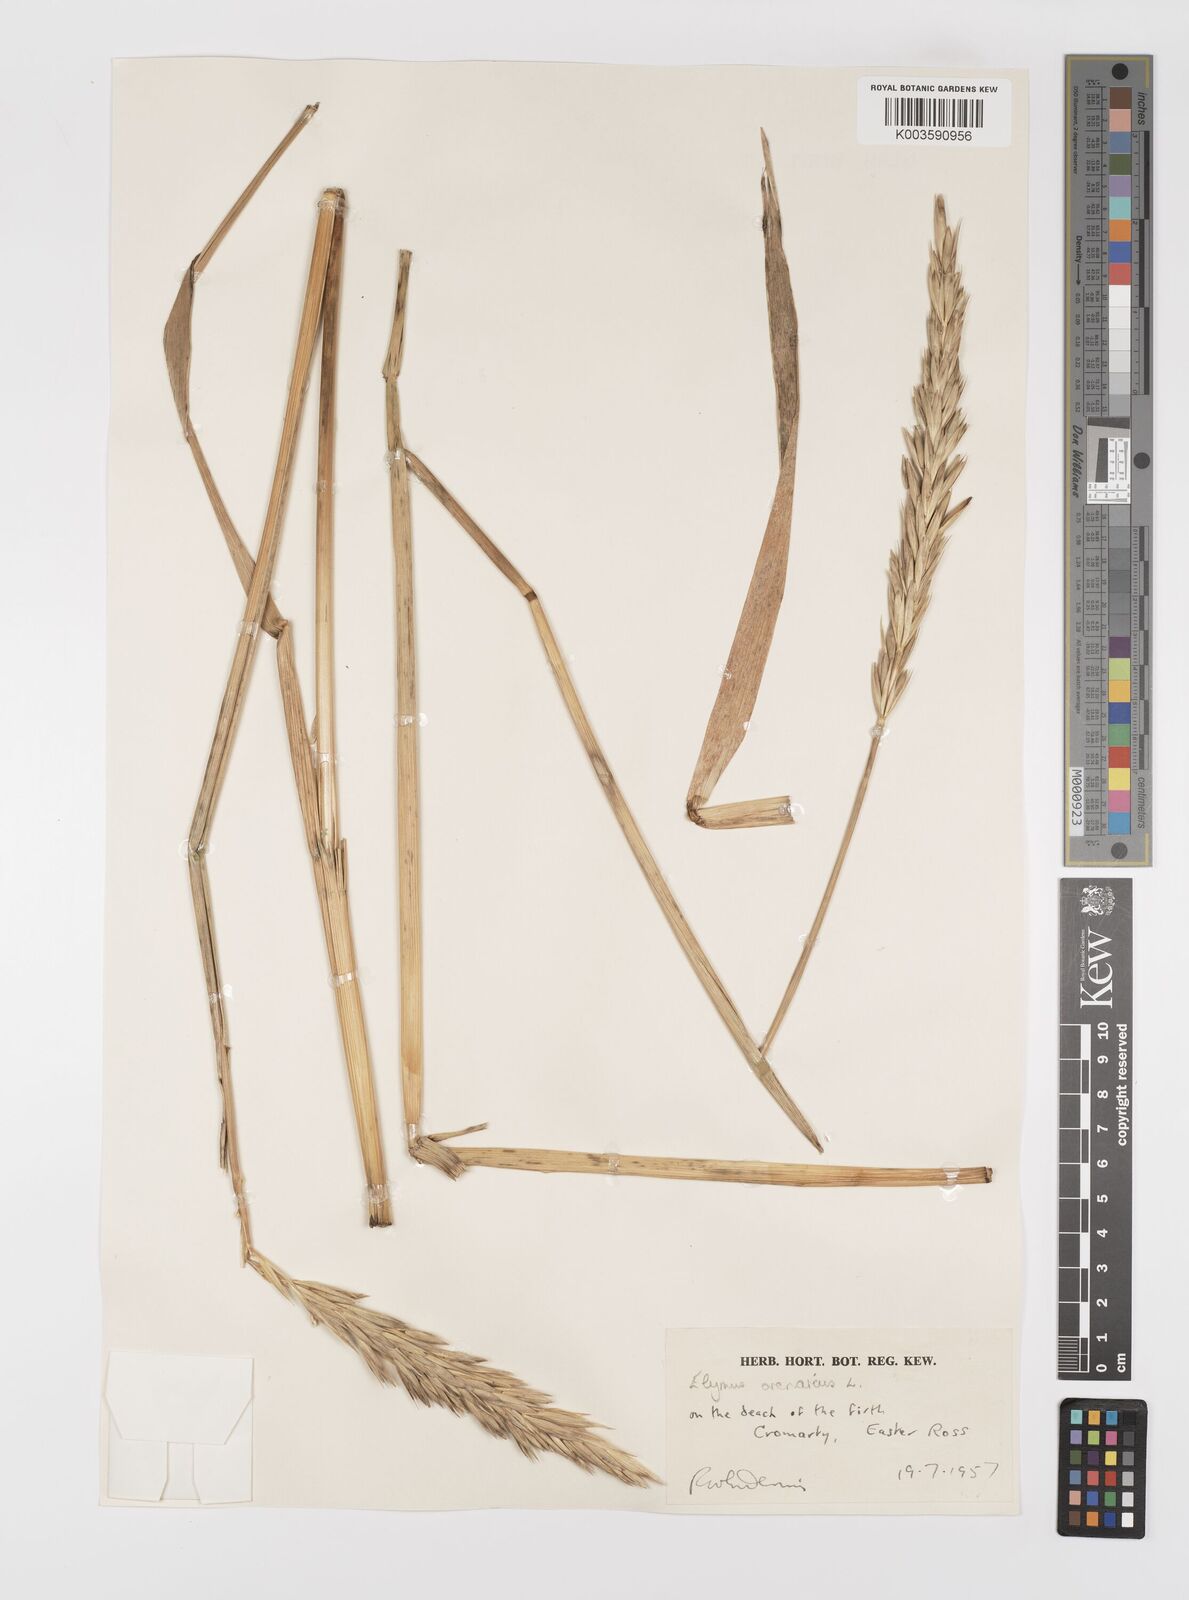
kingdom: Plantae
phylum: Tracheophyta
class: Liliopsida
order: Poales
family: Poaceae
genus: Leymus
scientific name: Leymus arenarius
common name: Lyme-grass
